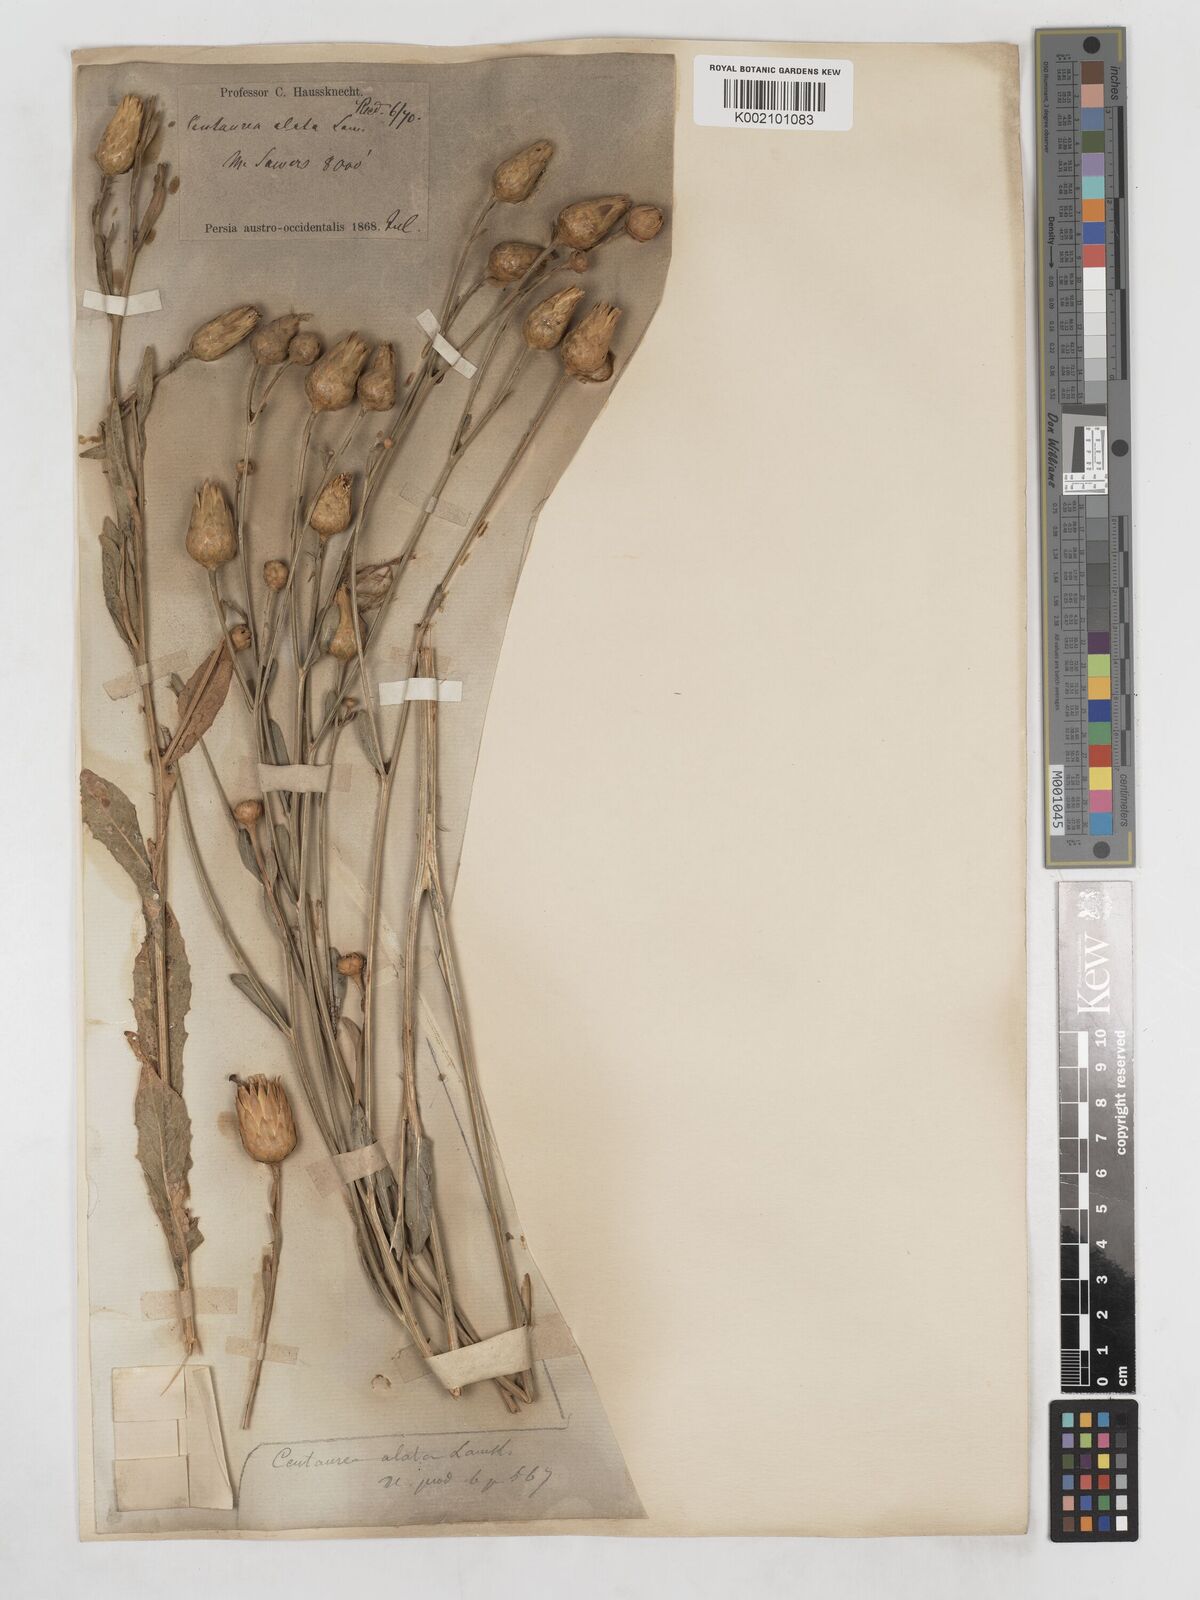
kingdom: Plantae
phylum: Tracheophyta
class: Magnoliopsida
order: Asterales
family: Asteraceae
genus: Centaurea
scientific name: Centaurea behen
